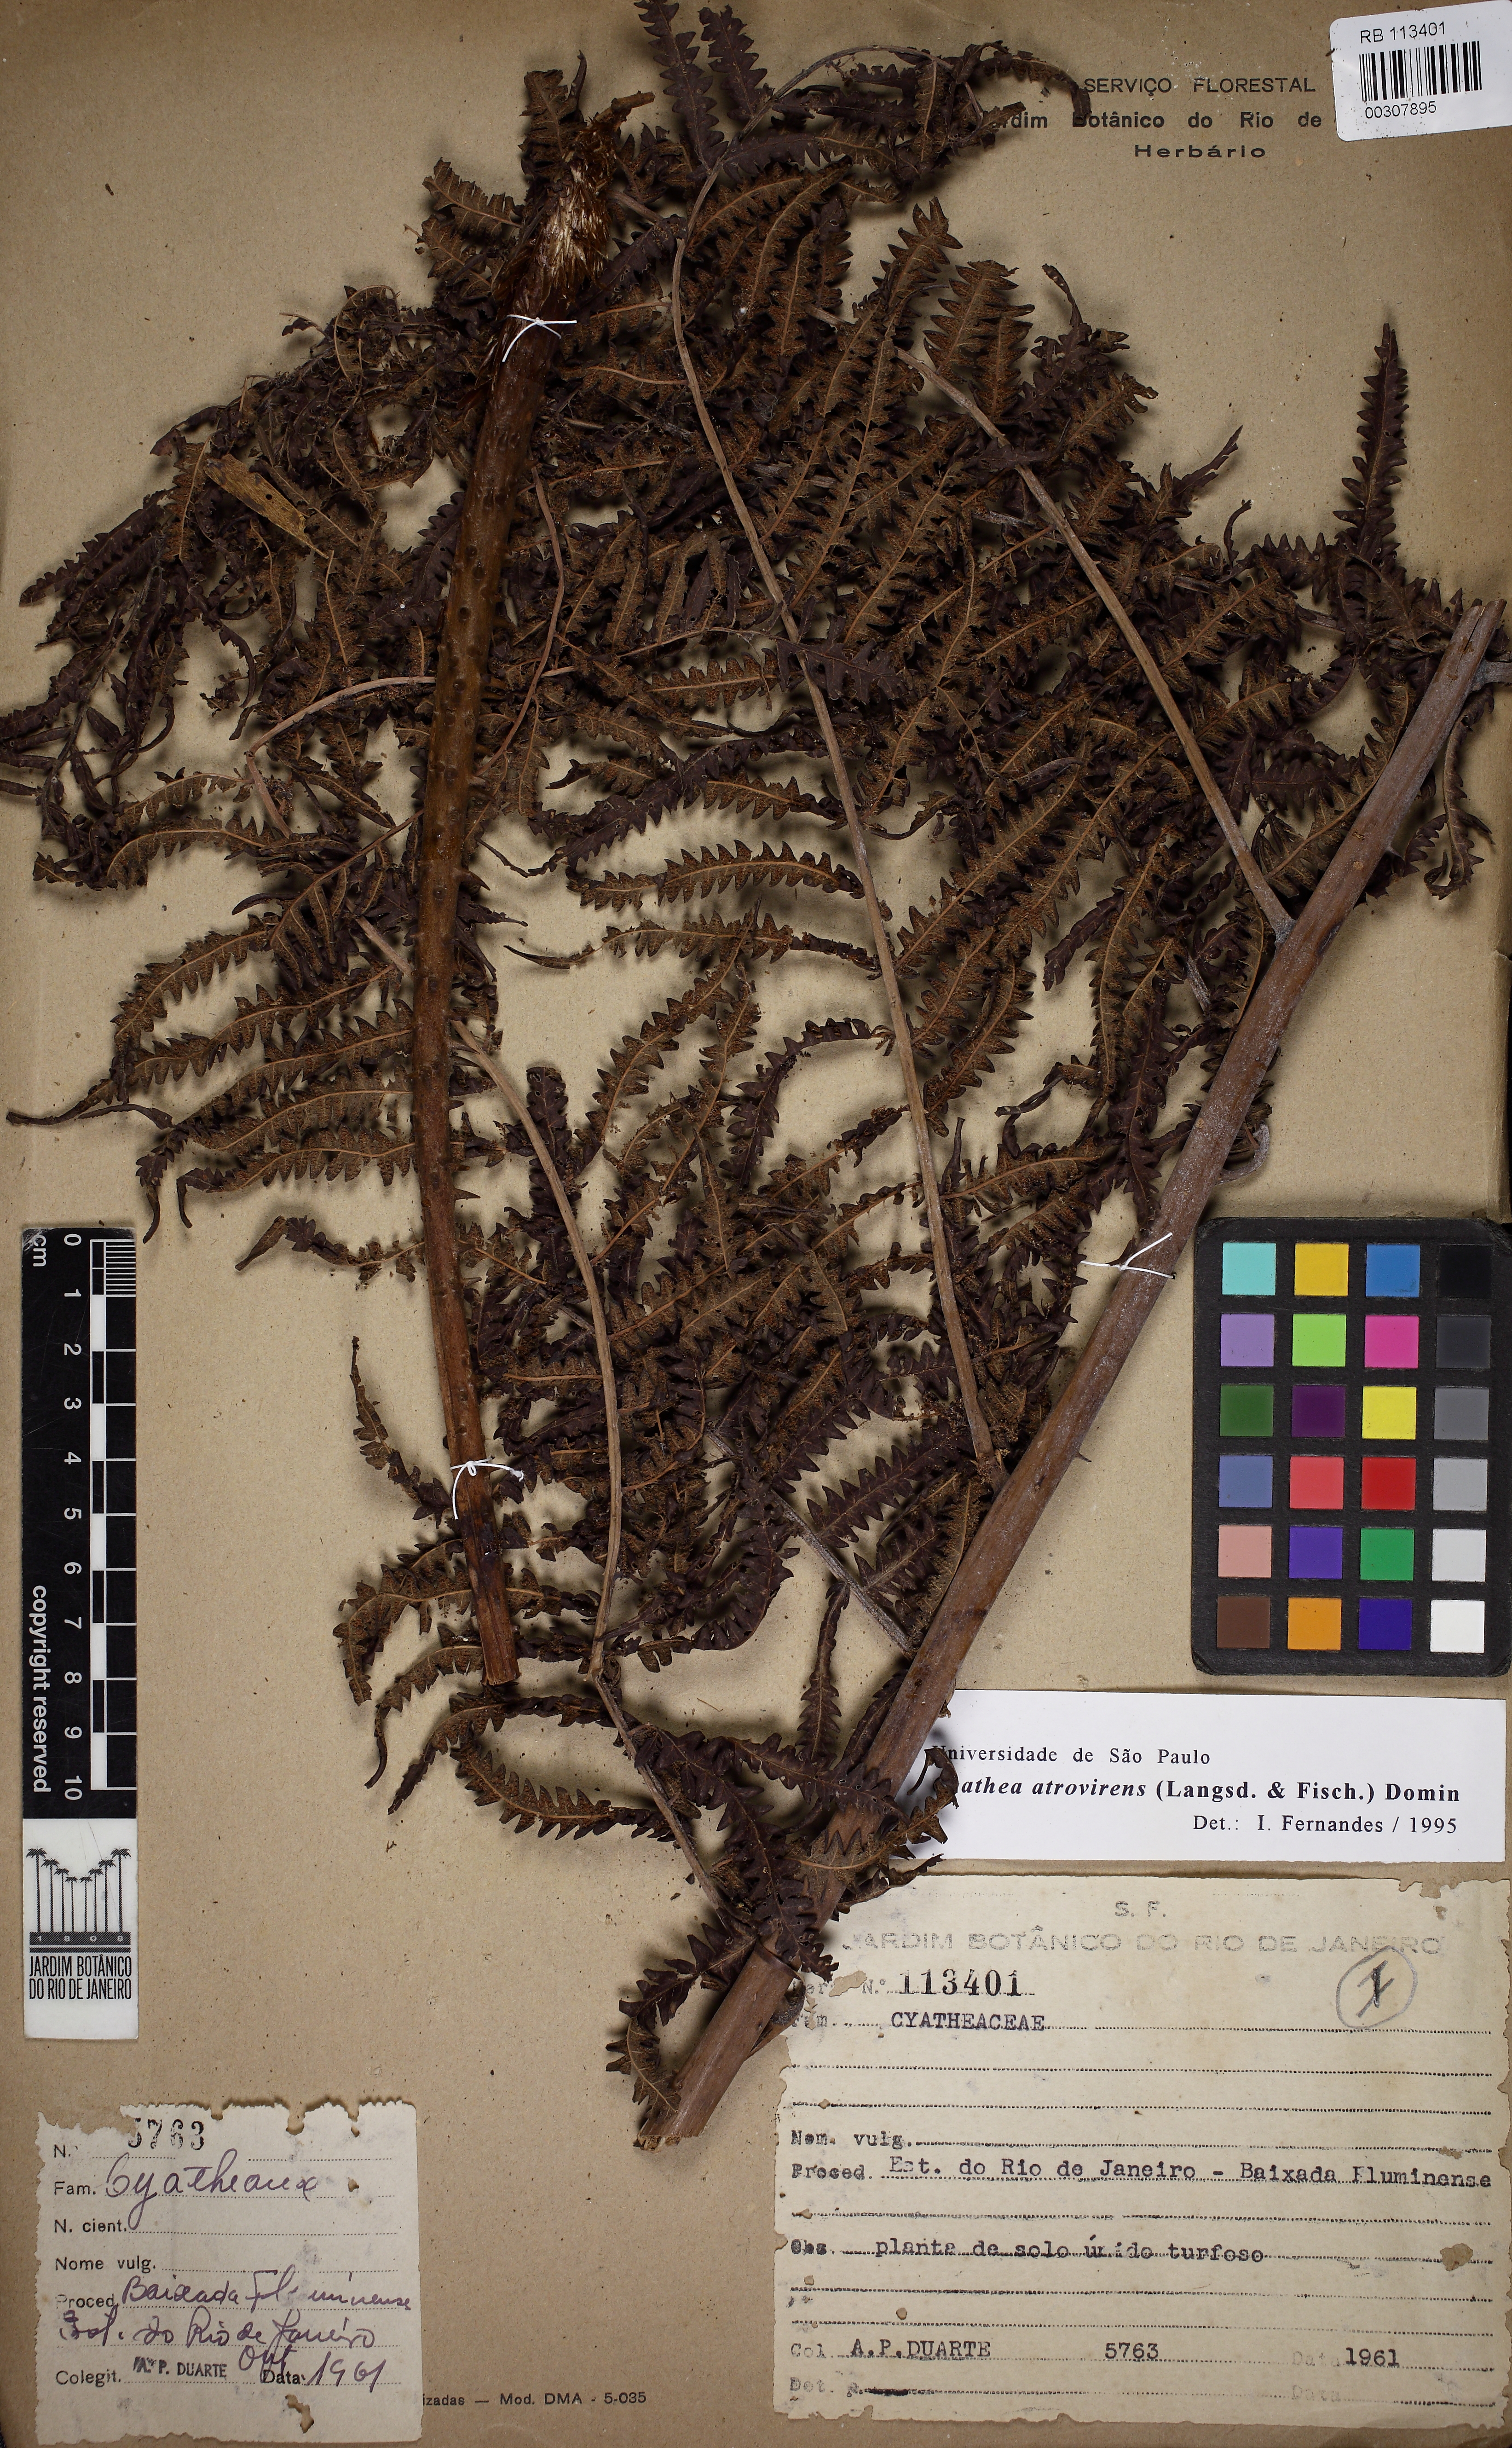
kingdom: Plantae
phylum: Tracheophyta
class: Polypodiopsida
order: Cyatheales
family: Cyatheaceae
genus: Cyathea
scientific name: Cyathea atrovirens
